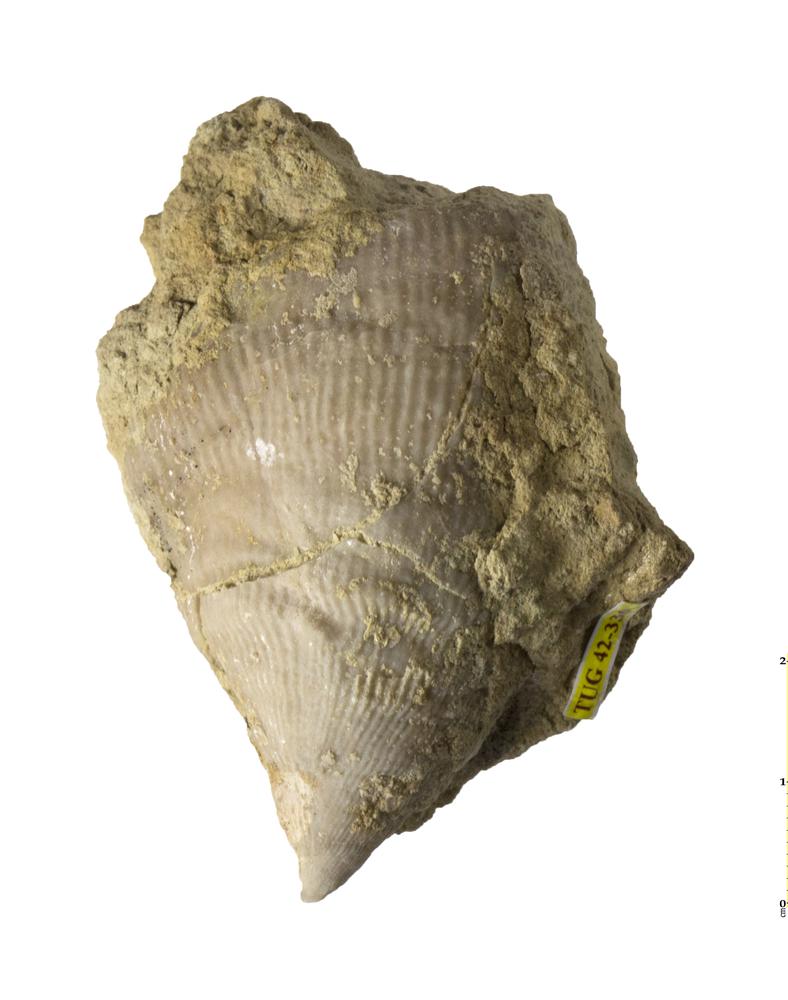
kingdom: Animalia
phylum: Cnidaria
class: Anthozoa
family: Streptelasmatidae
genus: Streptelasma
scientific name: Streptelasma corniculum
